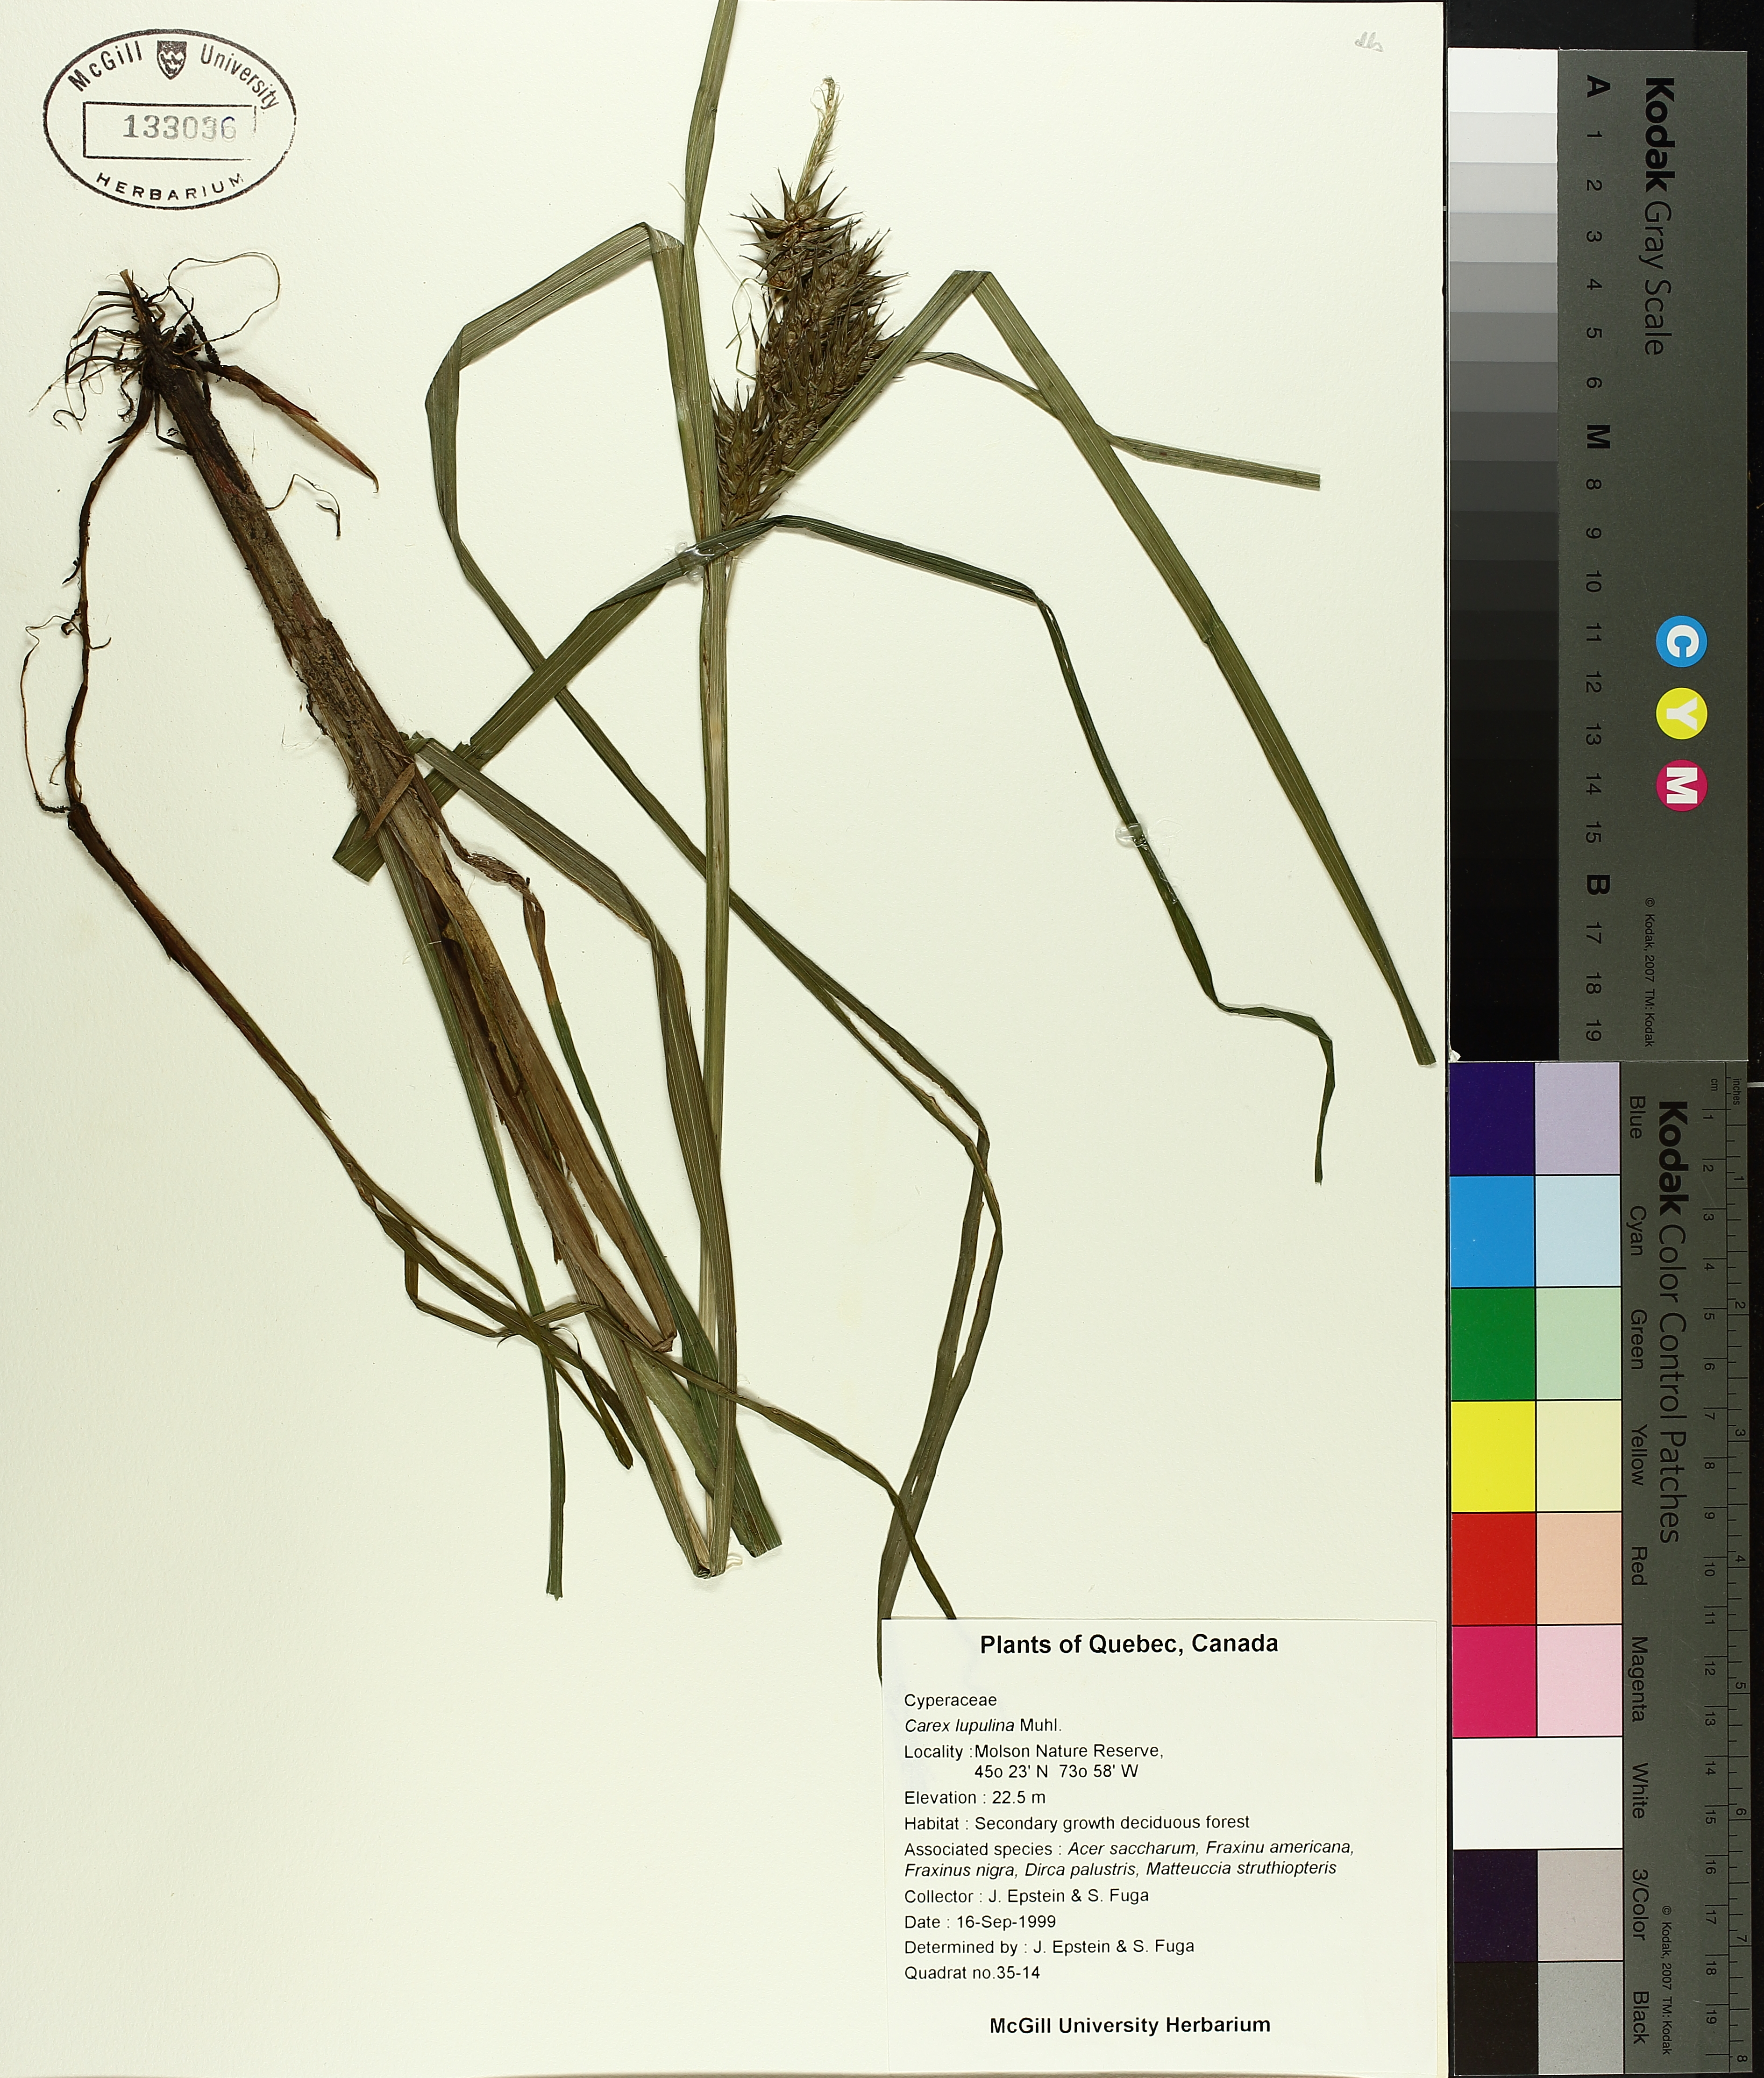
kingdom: Plantae
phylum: Tracheophyta
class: Liliopsida
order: Poales
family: Cyperaceae
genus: Carex
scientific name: Carex lupulina
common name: Hop sedge
